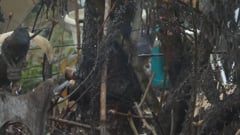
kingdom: Animalia
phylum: Chordata
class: Aves
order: Accipitriformes
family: Accipitridae
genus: Accipiter
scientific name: Accipiter nisus
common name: Eurasian sparrowhawk
